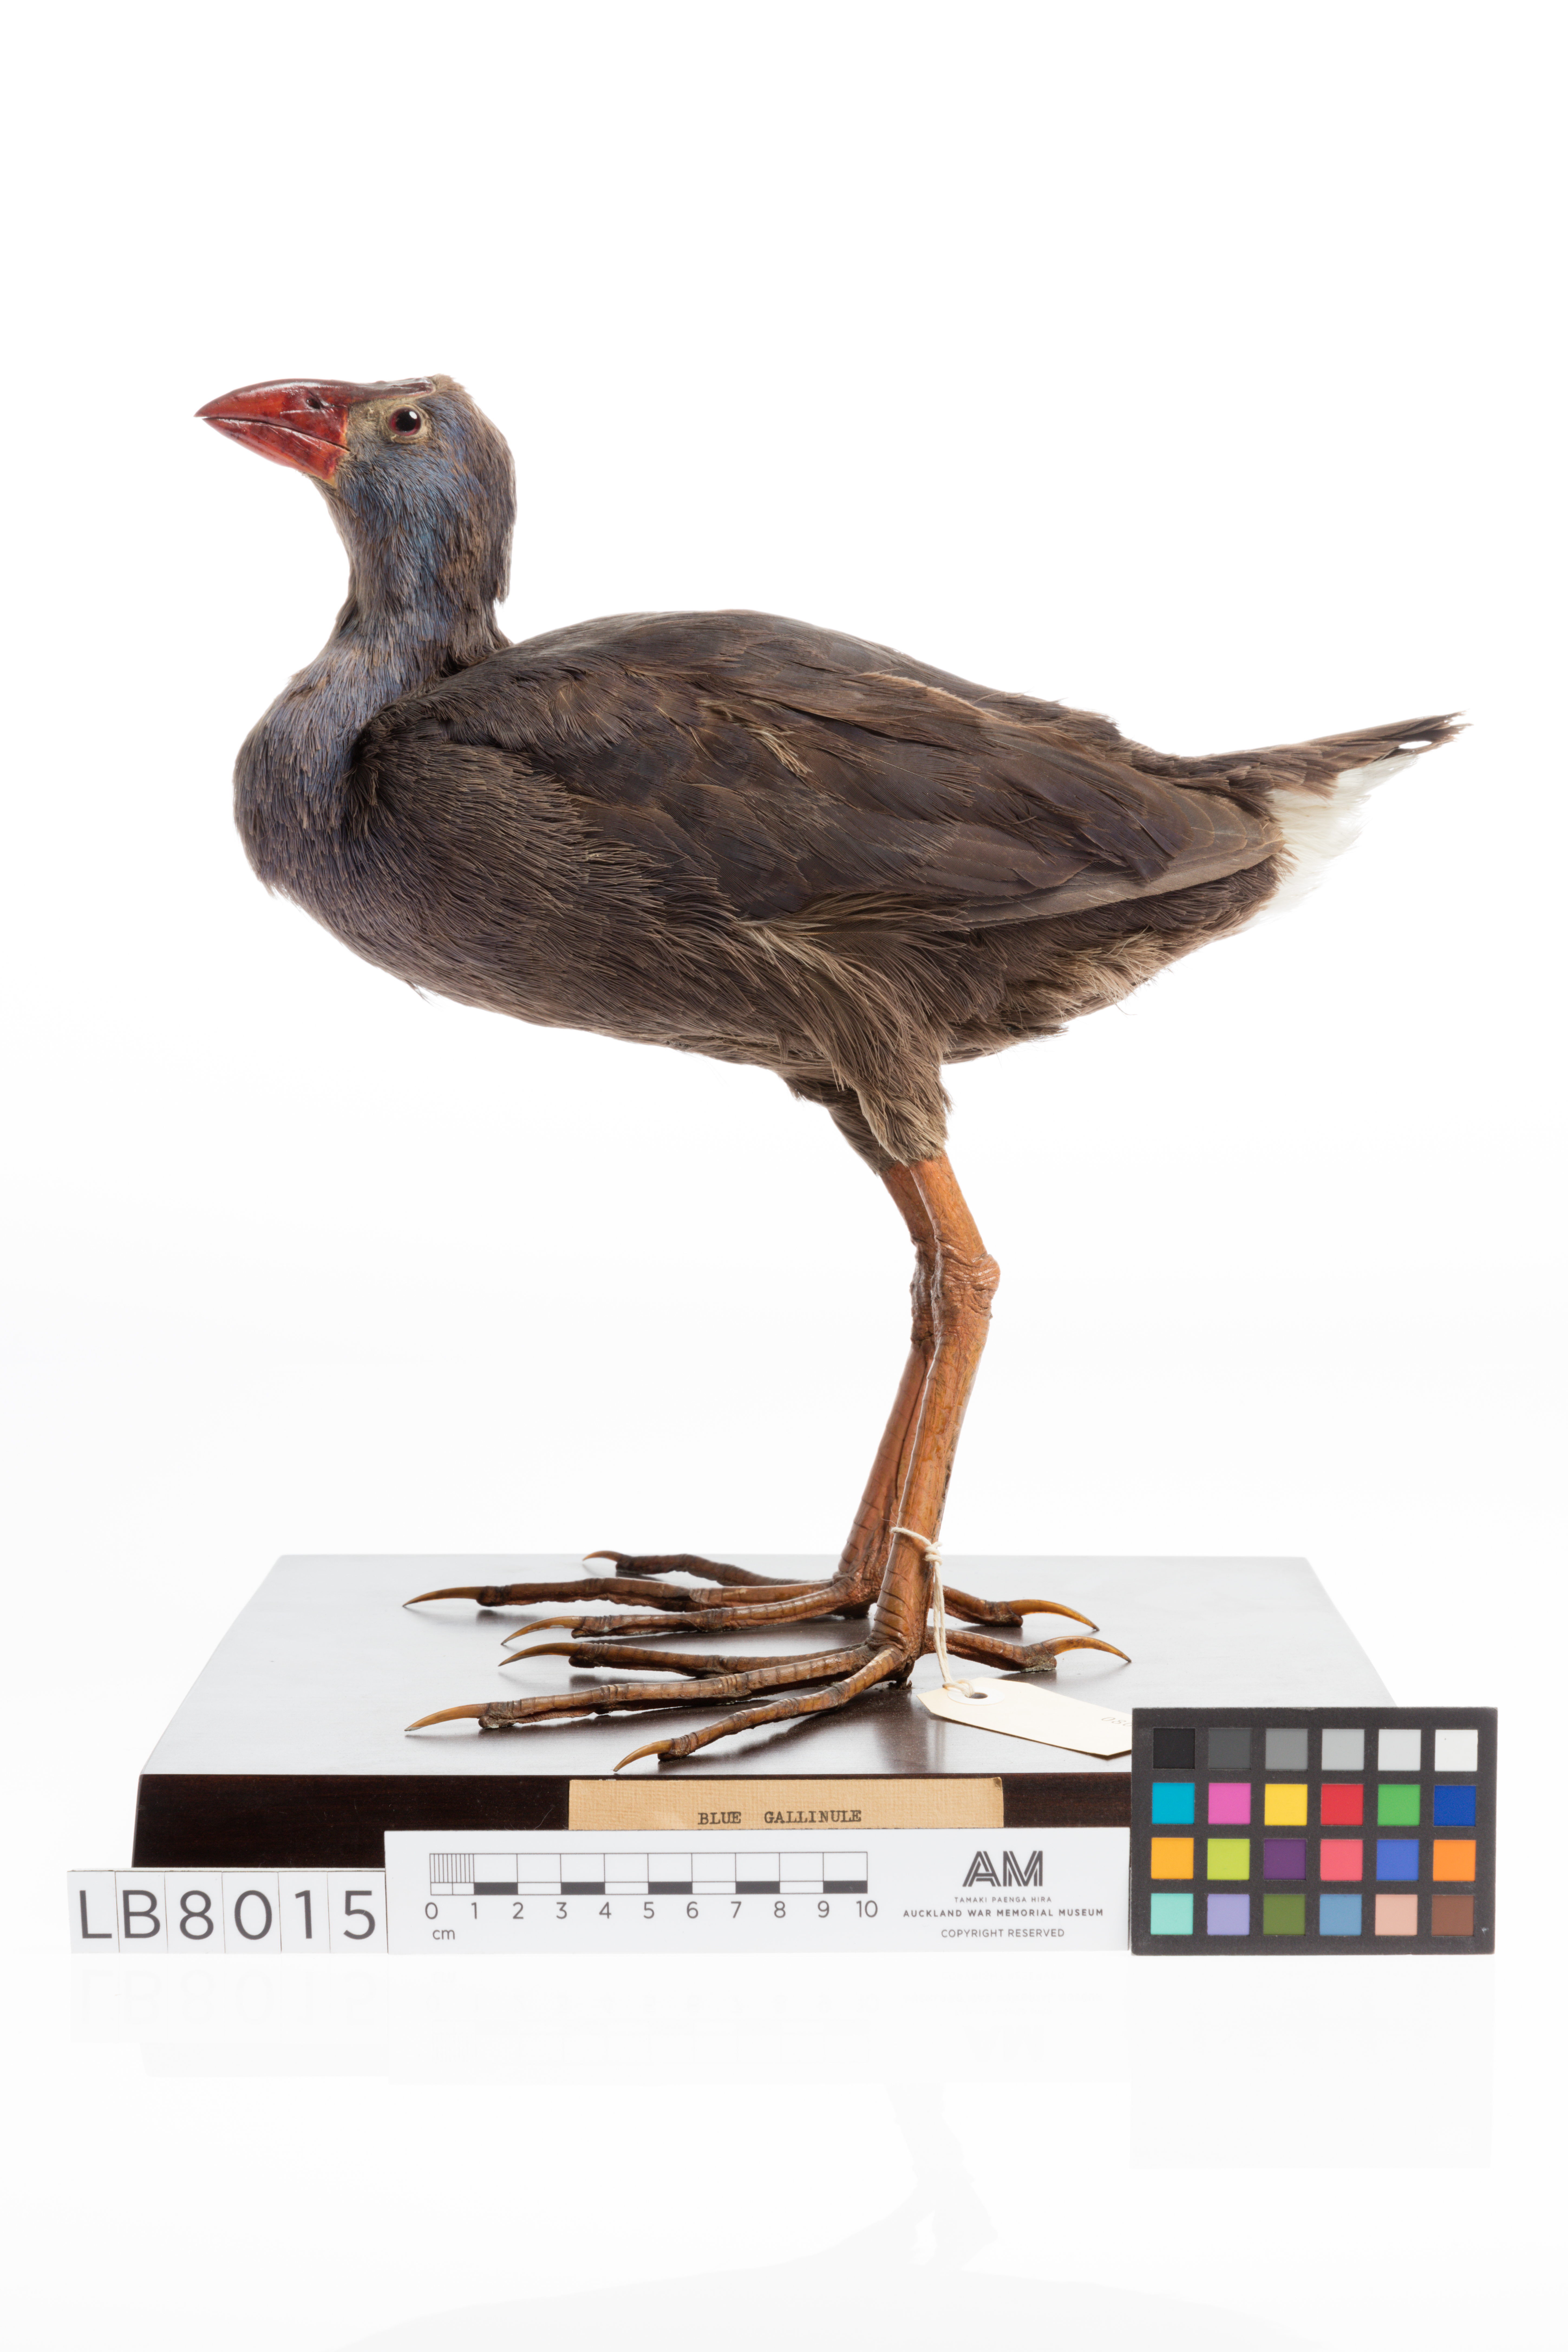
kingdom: Animalia
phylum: Chordata
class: Aves
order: Gruiformes
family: Rallidae
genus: Porphyrio
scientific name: Porphyrio porphyrio
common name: Purple swamphen
